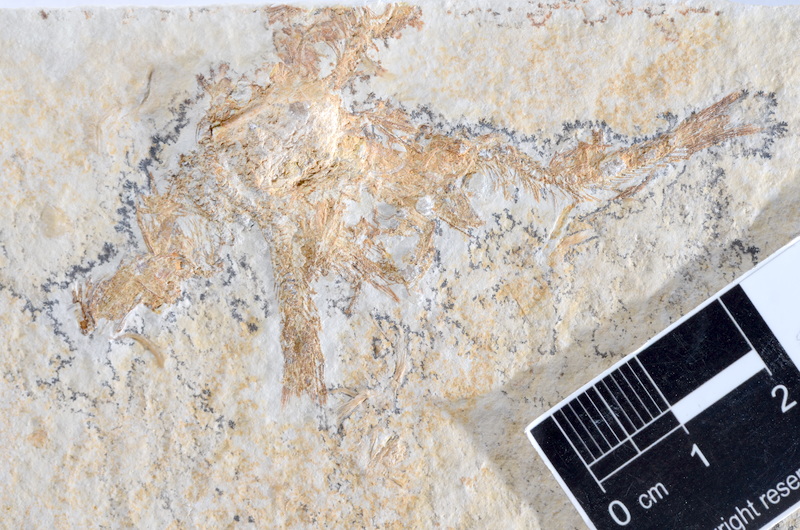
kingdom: Animalia
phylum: Chordata
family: Ascalaboidae
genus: Tharsis
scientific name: Tharsis dubius
